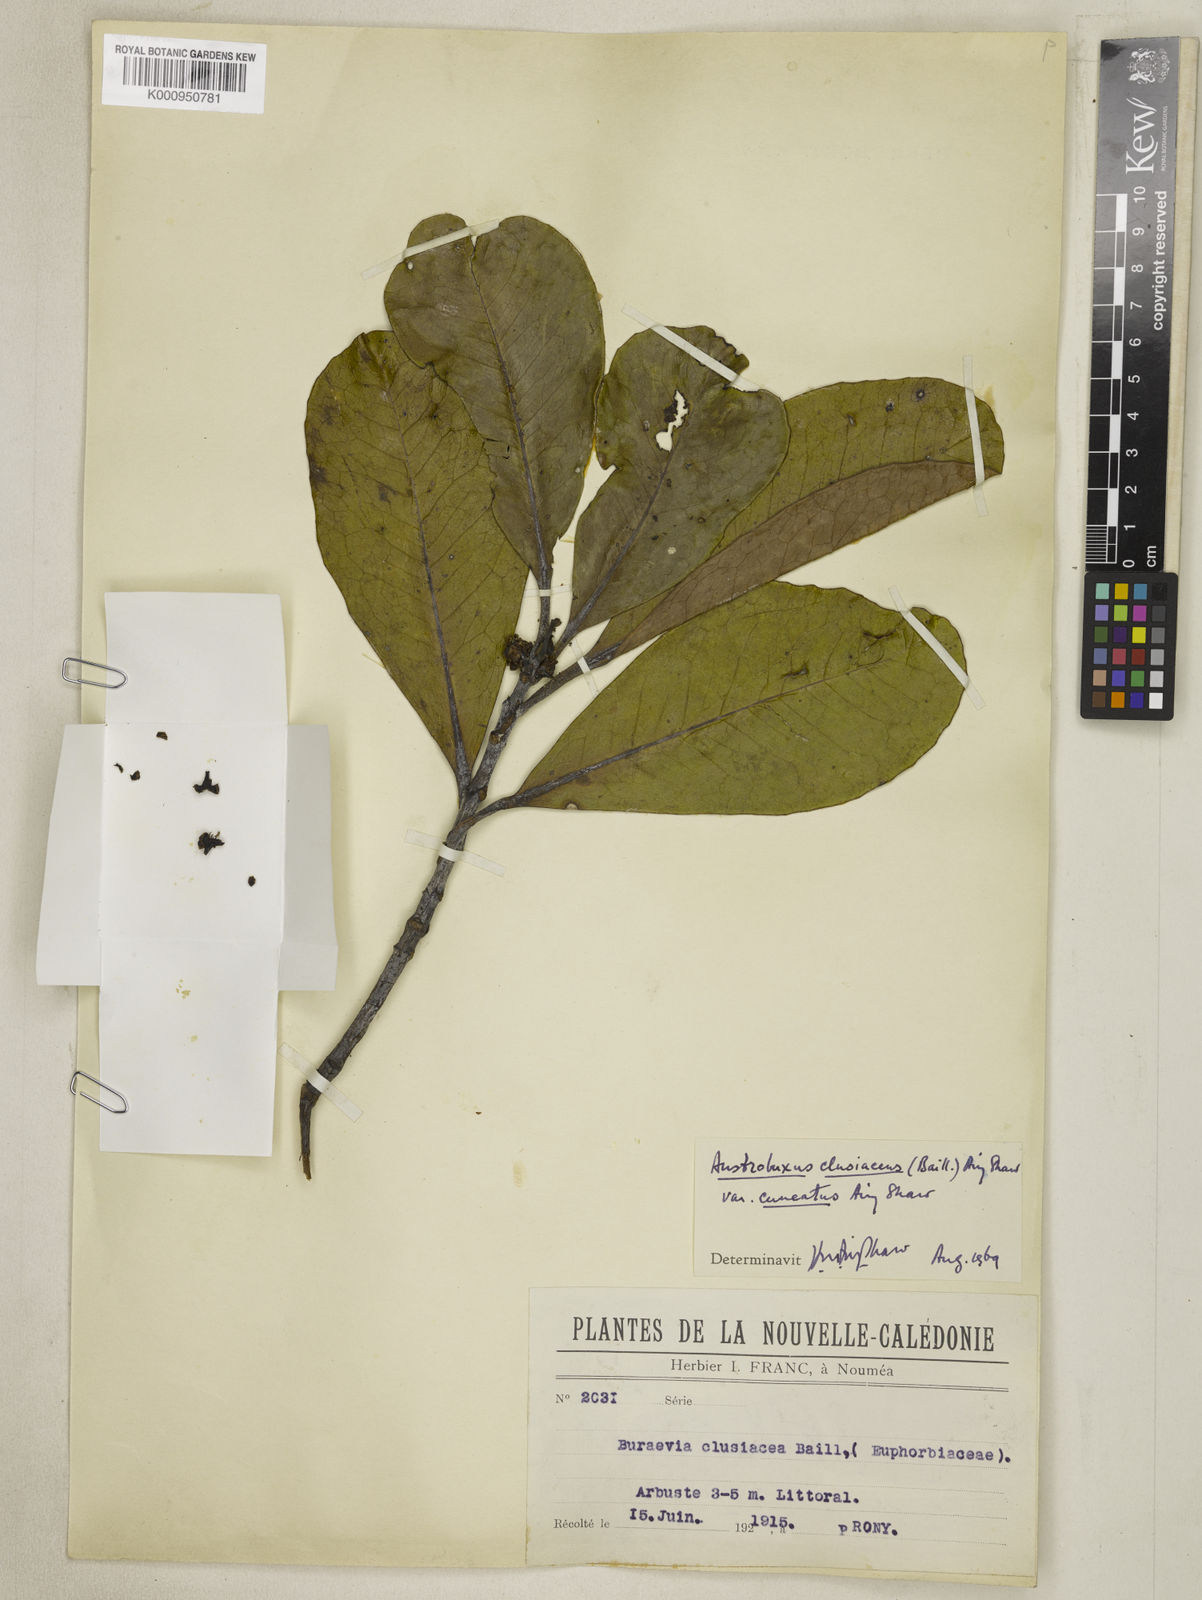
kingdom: Plantae
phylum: Tracheophyta
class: Magnoliopsida
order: Malpighiales
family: Picrodendraceae
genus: Austrobuxus
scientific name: Austrobuxus cuneatus
